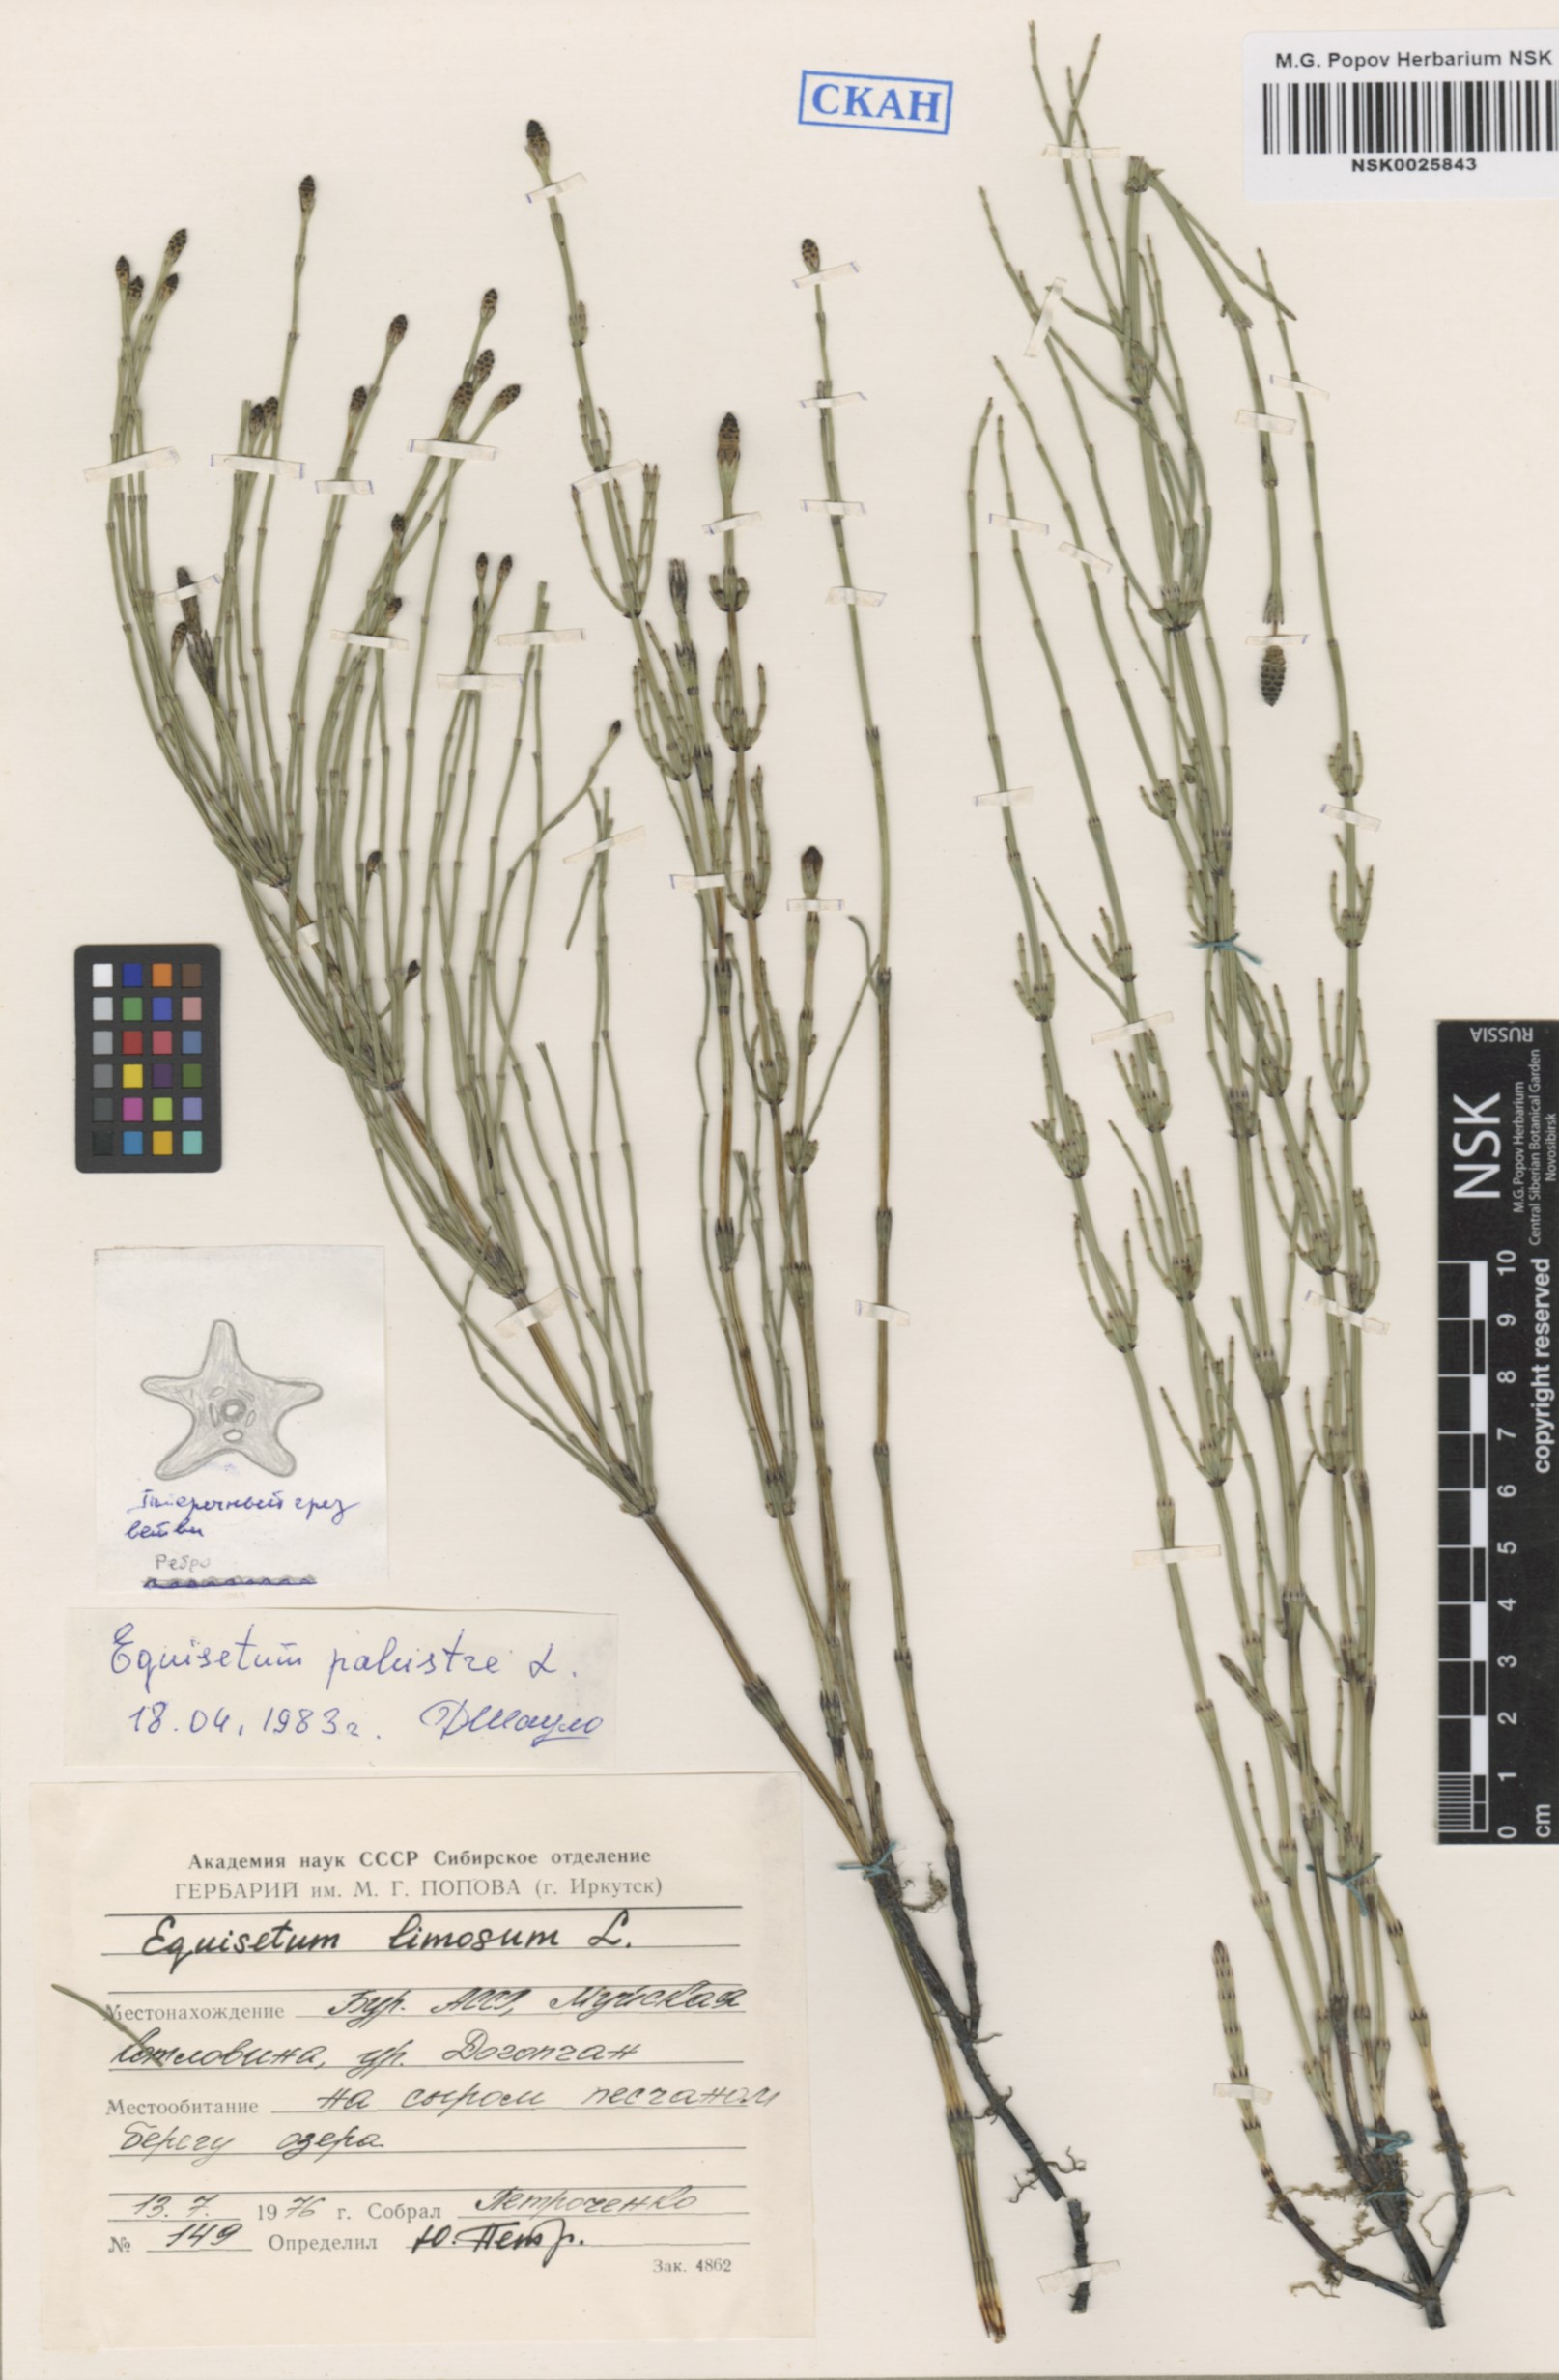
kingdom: Plantae
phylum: Tracheophyta
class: Polypodiopsida
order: Equisetales
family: Equisetaceae
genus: Equisetum
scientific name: Equisetum palustre
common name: Marsh horsetail
